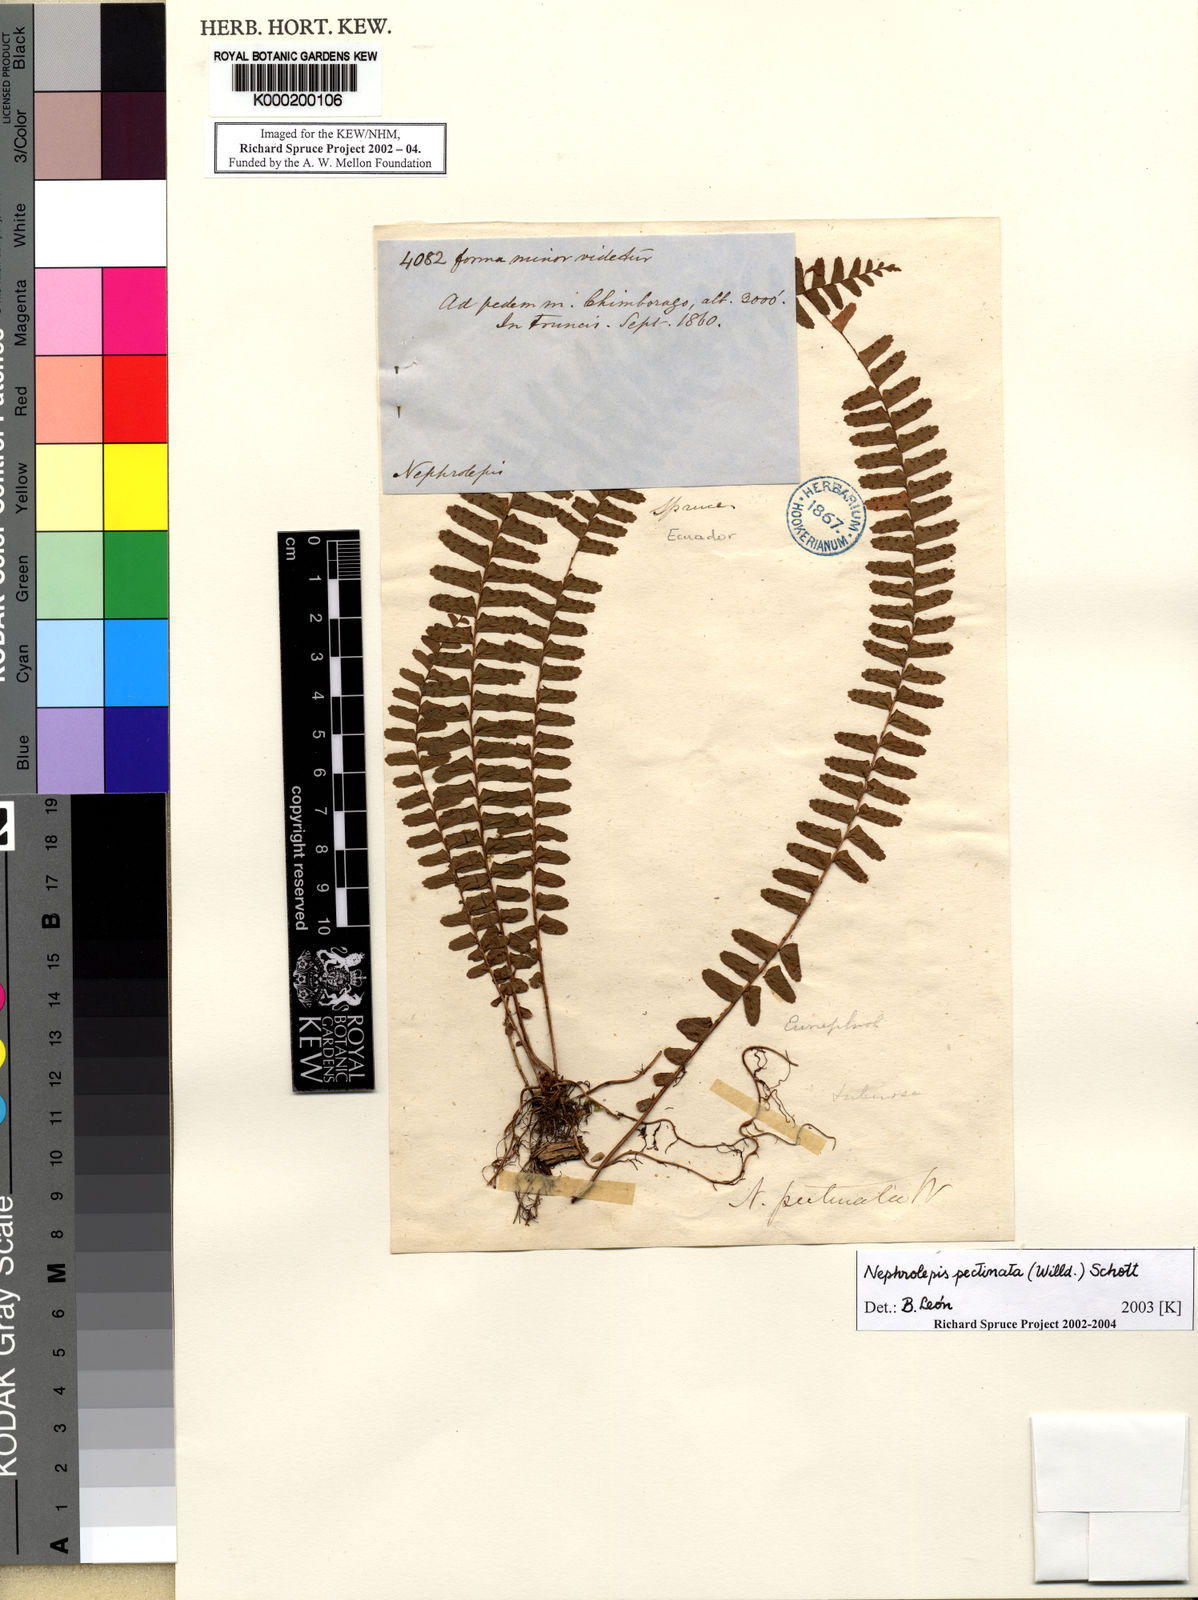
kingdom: Plantae
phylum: Tracheophyta
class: Polypodiopsida
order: Polypodiales
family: Nephrolepidaceae
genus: Nephrolepis
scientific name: Nephrolepis pectinata
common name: Basket fern
